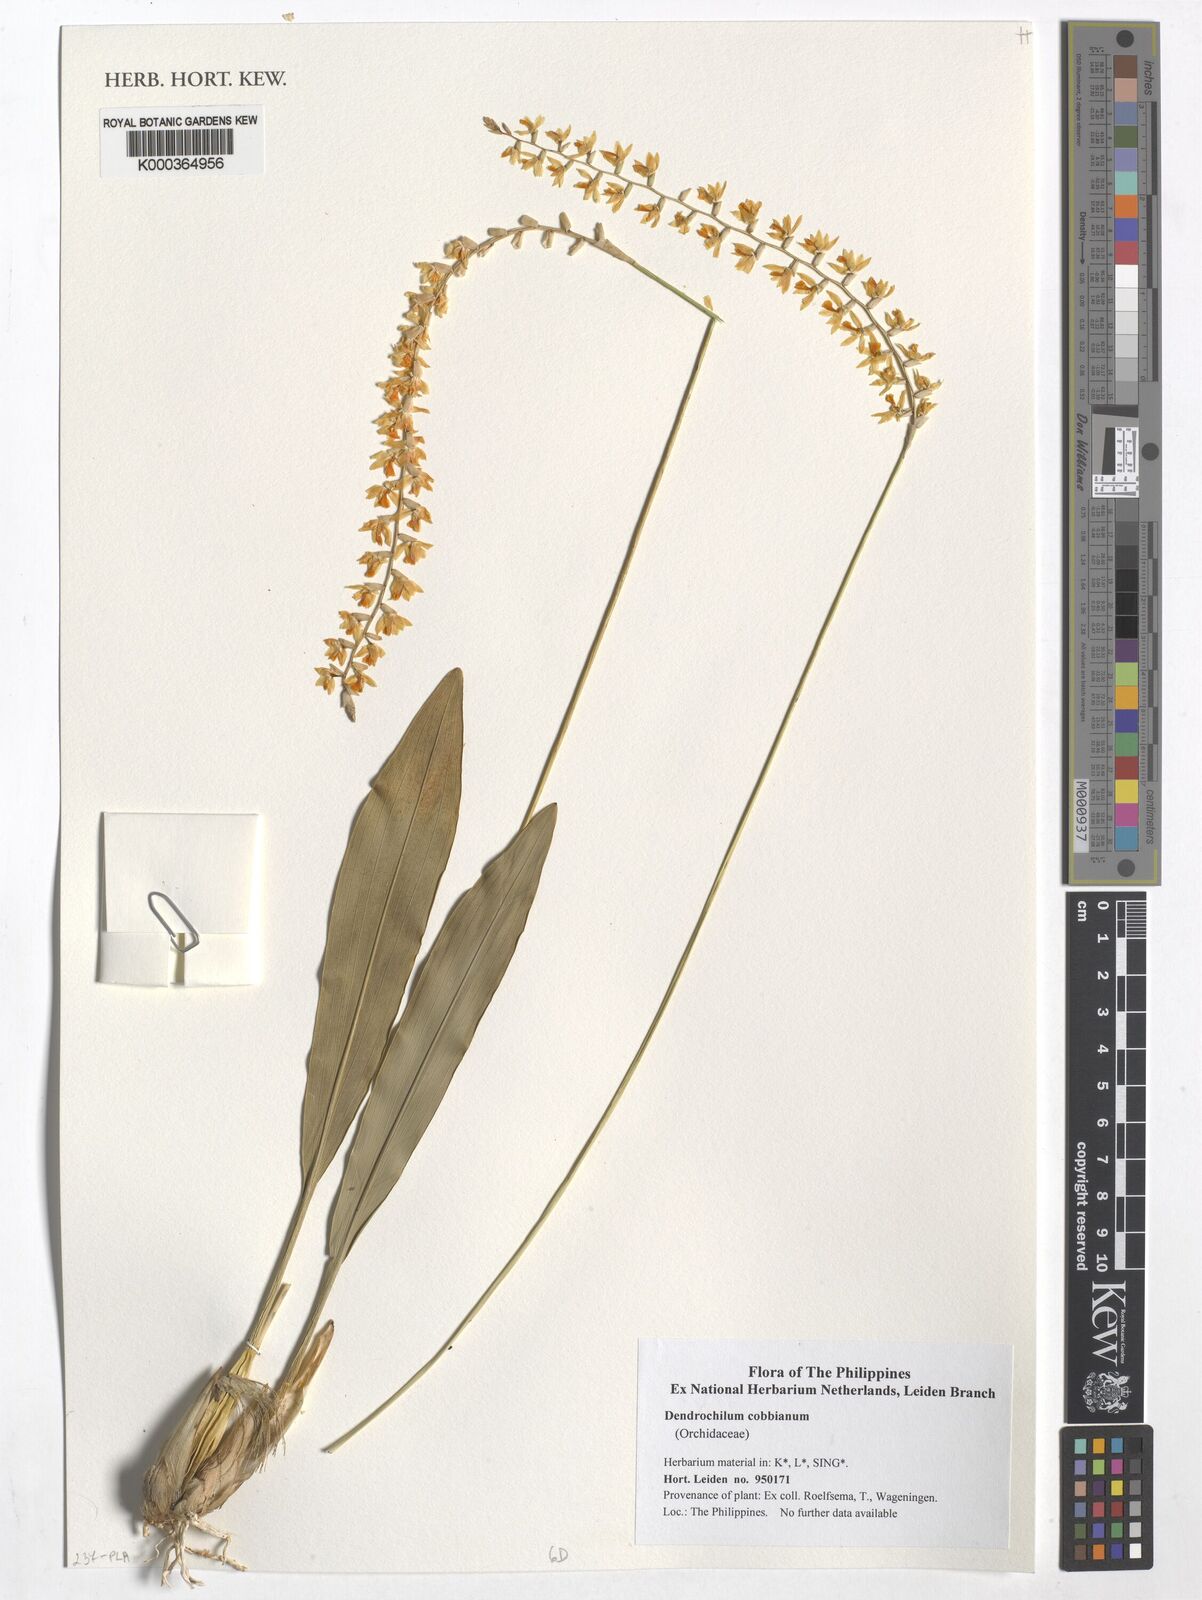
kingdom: Plantae
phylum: Tracheophyta
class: Liliopsida
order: Asparagales
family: Orchidaceae
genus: Coelogyne
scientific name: Coelogyne cobbiana
